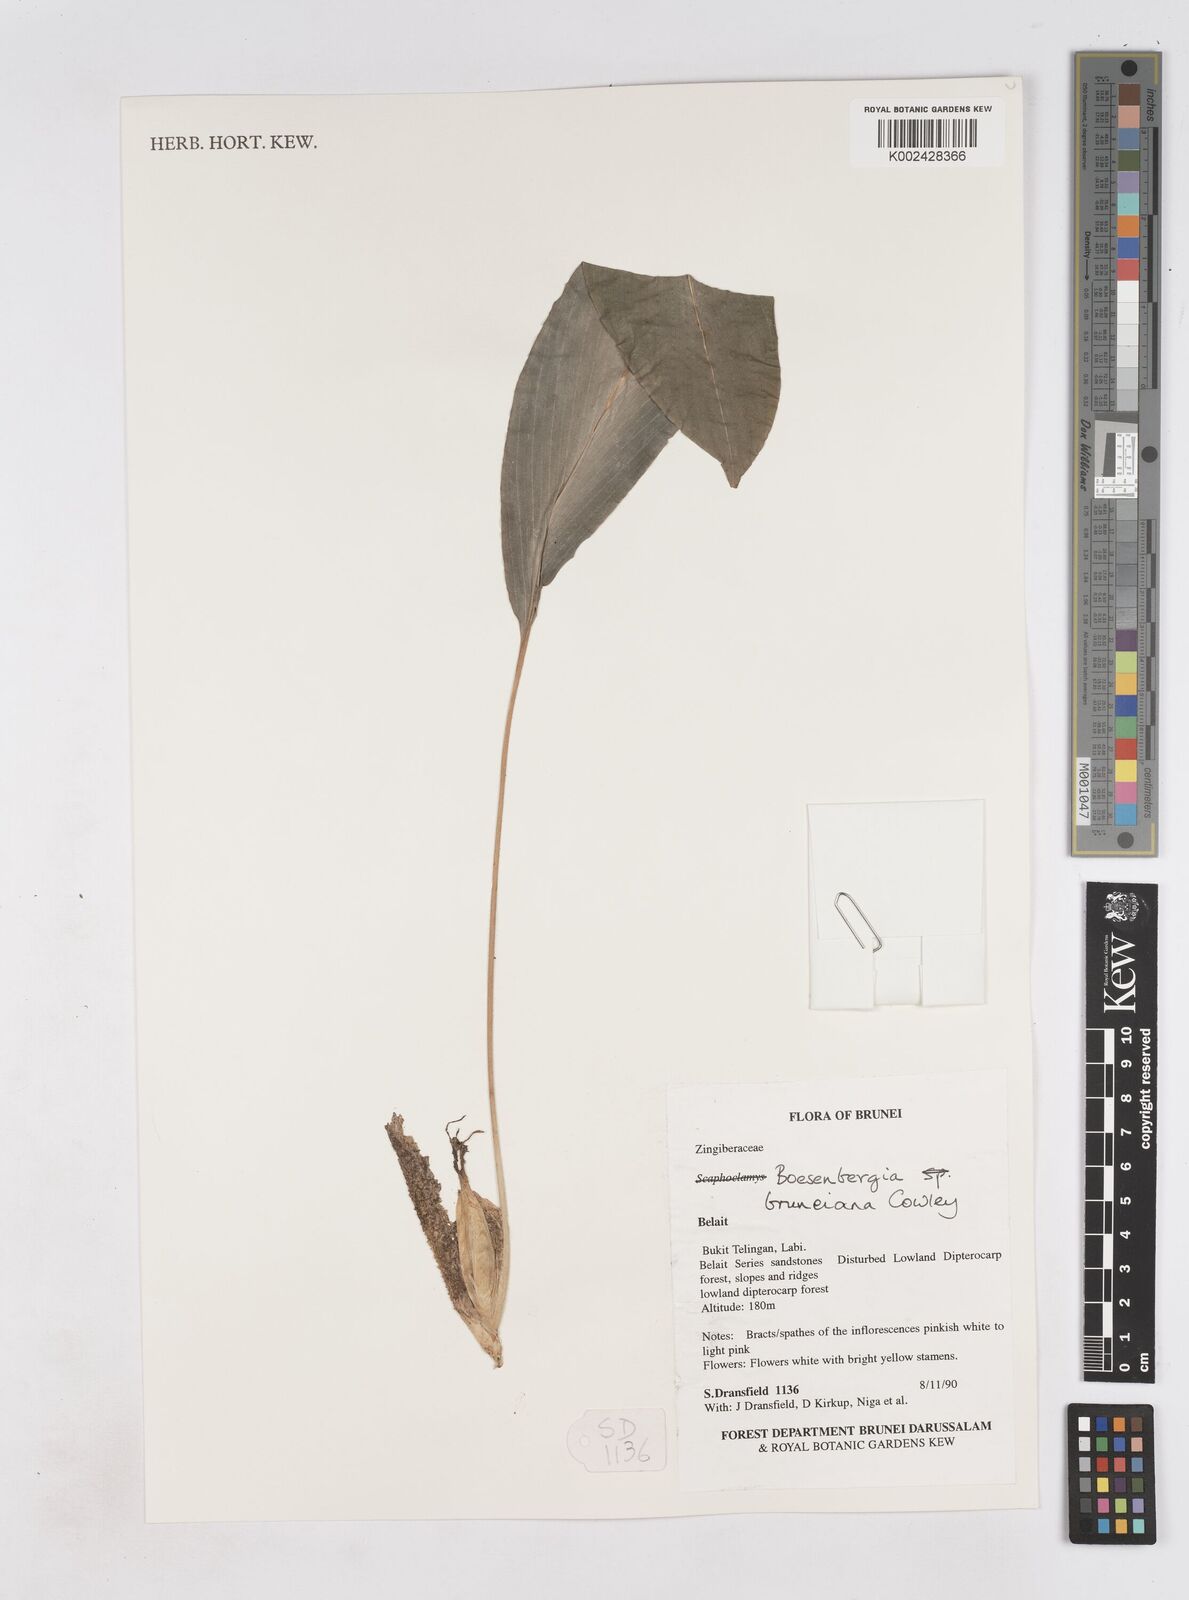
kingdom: Plantae
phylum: Tracheophyta
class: Liliopsida
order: Zingiberales
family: Zingiberaceae
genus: Boesenbergia
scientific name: Boesenbergia bruneiana
